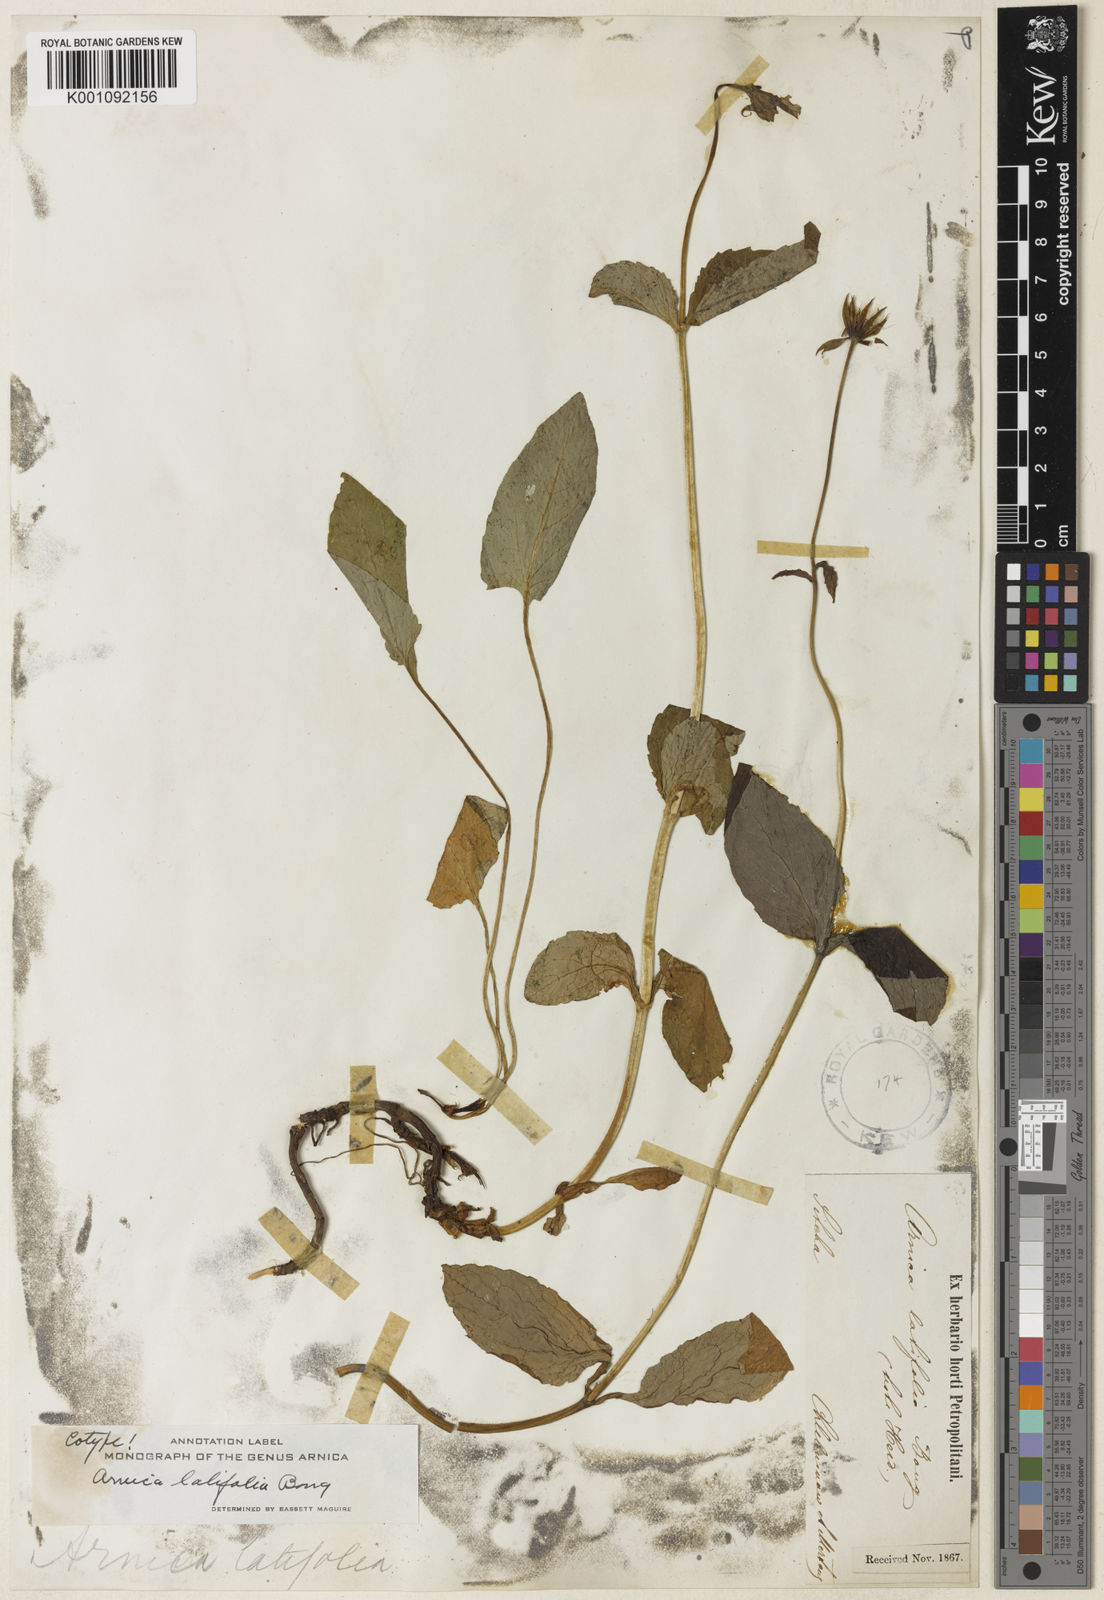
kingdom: Plantae
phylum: Tracheophyta
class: Magnoliopsida
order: Asterales
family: Asteraceae
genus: Arnica
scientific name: Arnica latifolia
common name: Arnica
